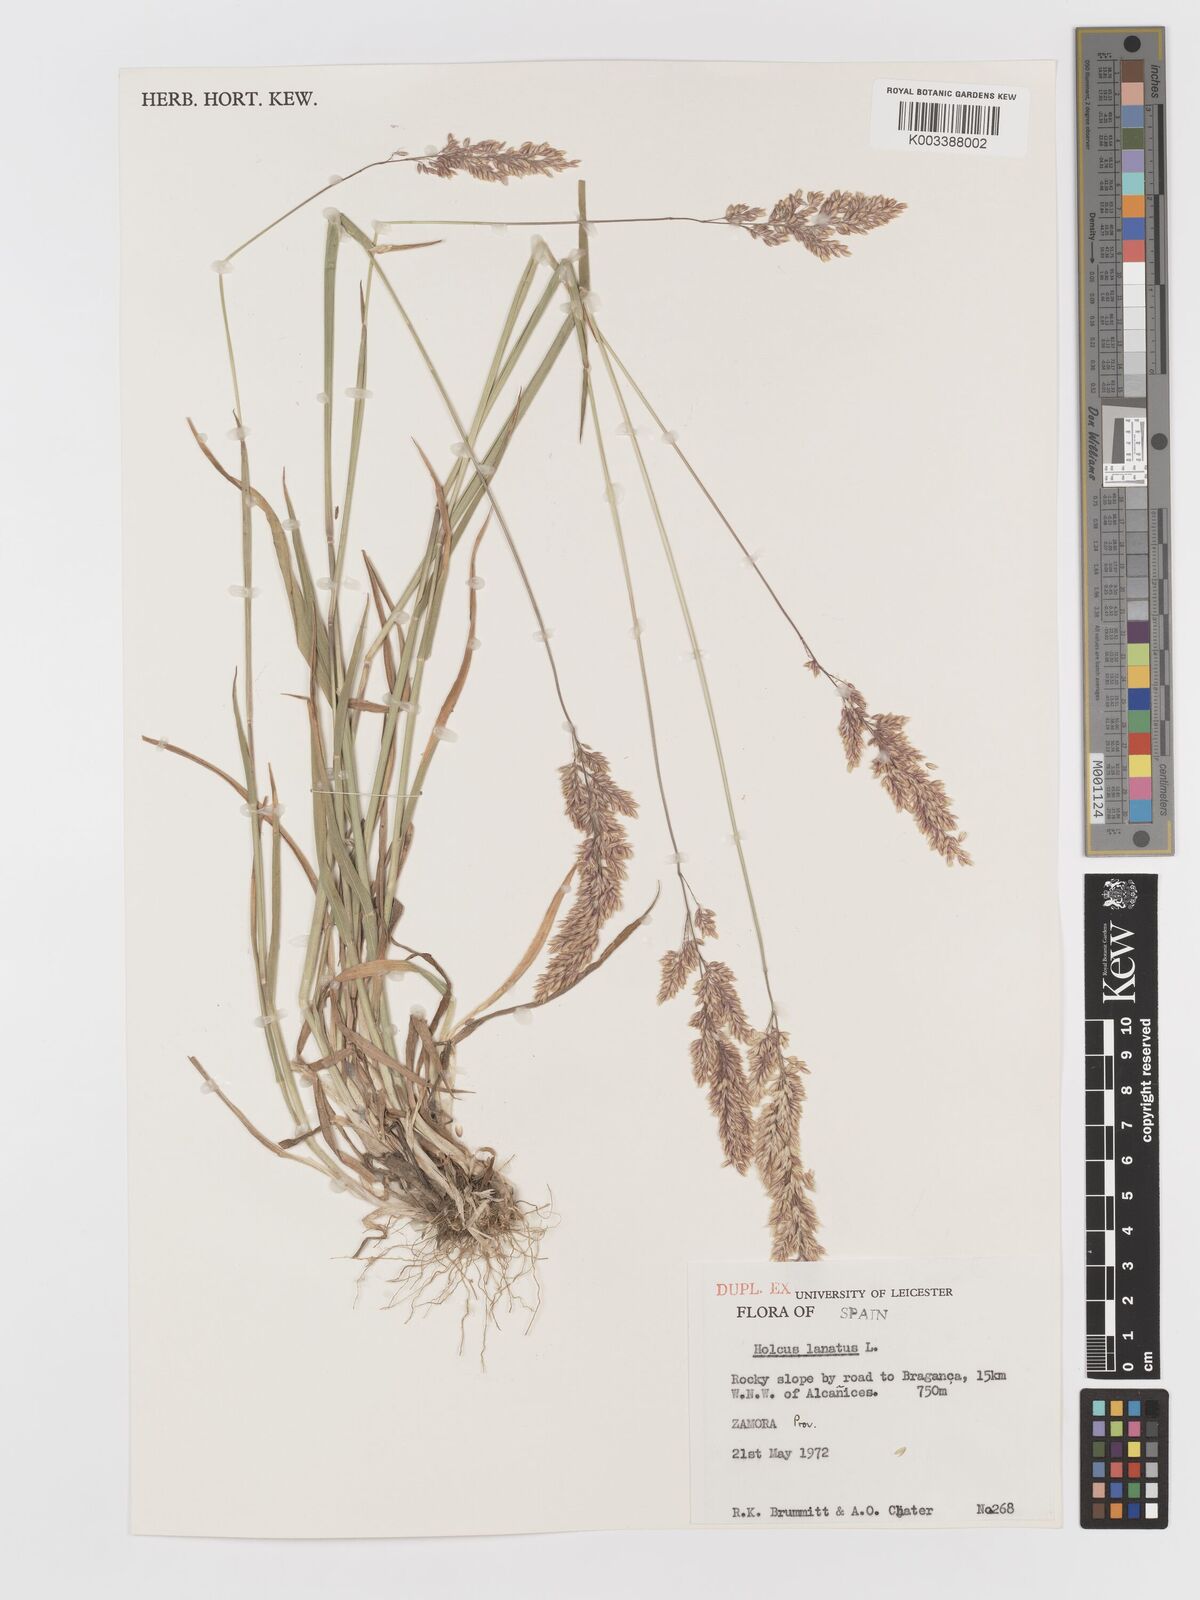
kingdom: Plantae
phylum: Tracheophyta
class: Liliopsida
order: Poales
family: Poaceae
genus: Holcus
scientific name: Holcus lanatus
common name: Yorkshire-fog
